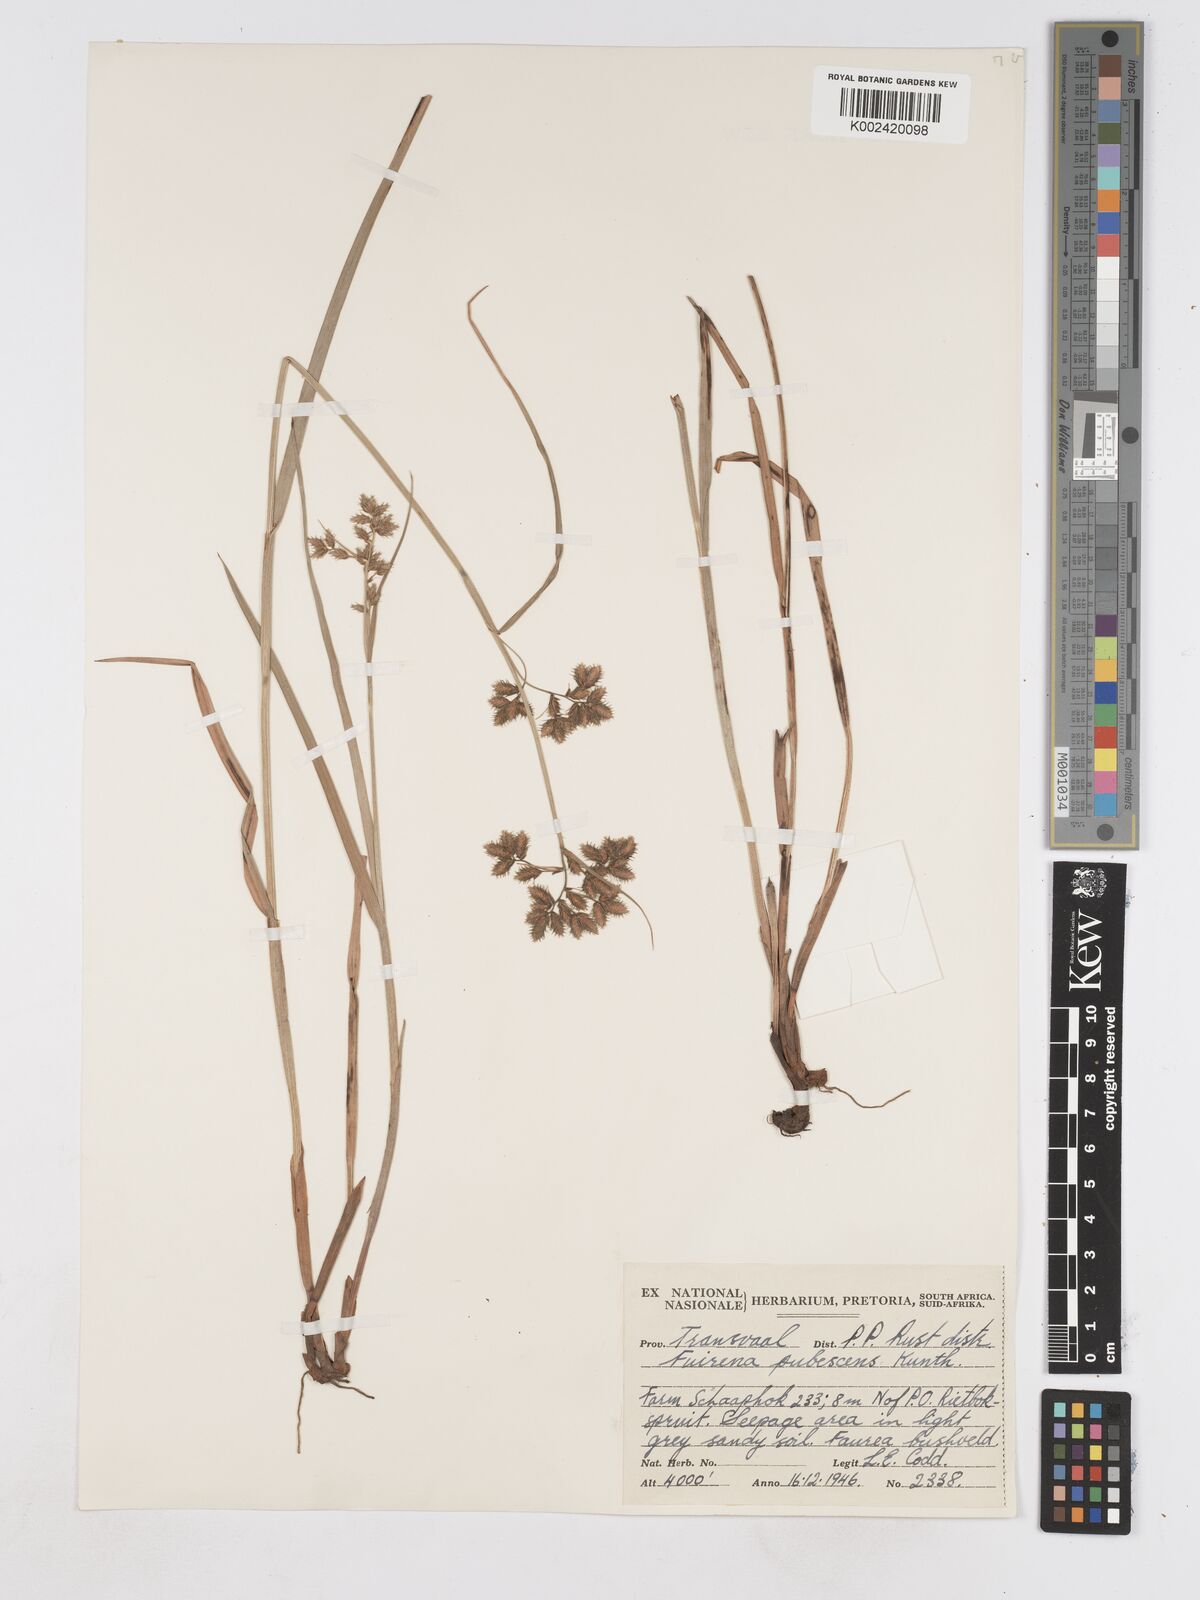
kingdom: Plantae
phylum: Tracheophyta
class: Liliopsida
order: Poales
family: Cyperaceae
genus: Fuirena
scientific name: Fuirena pubescens
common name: Hairy sedge
